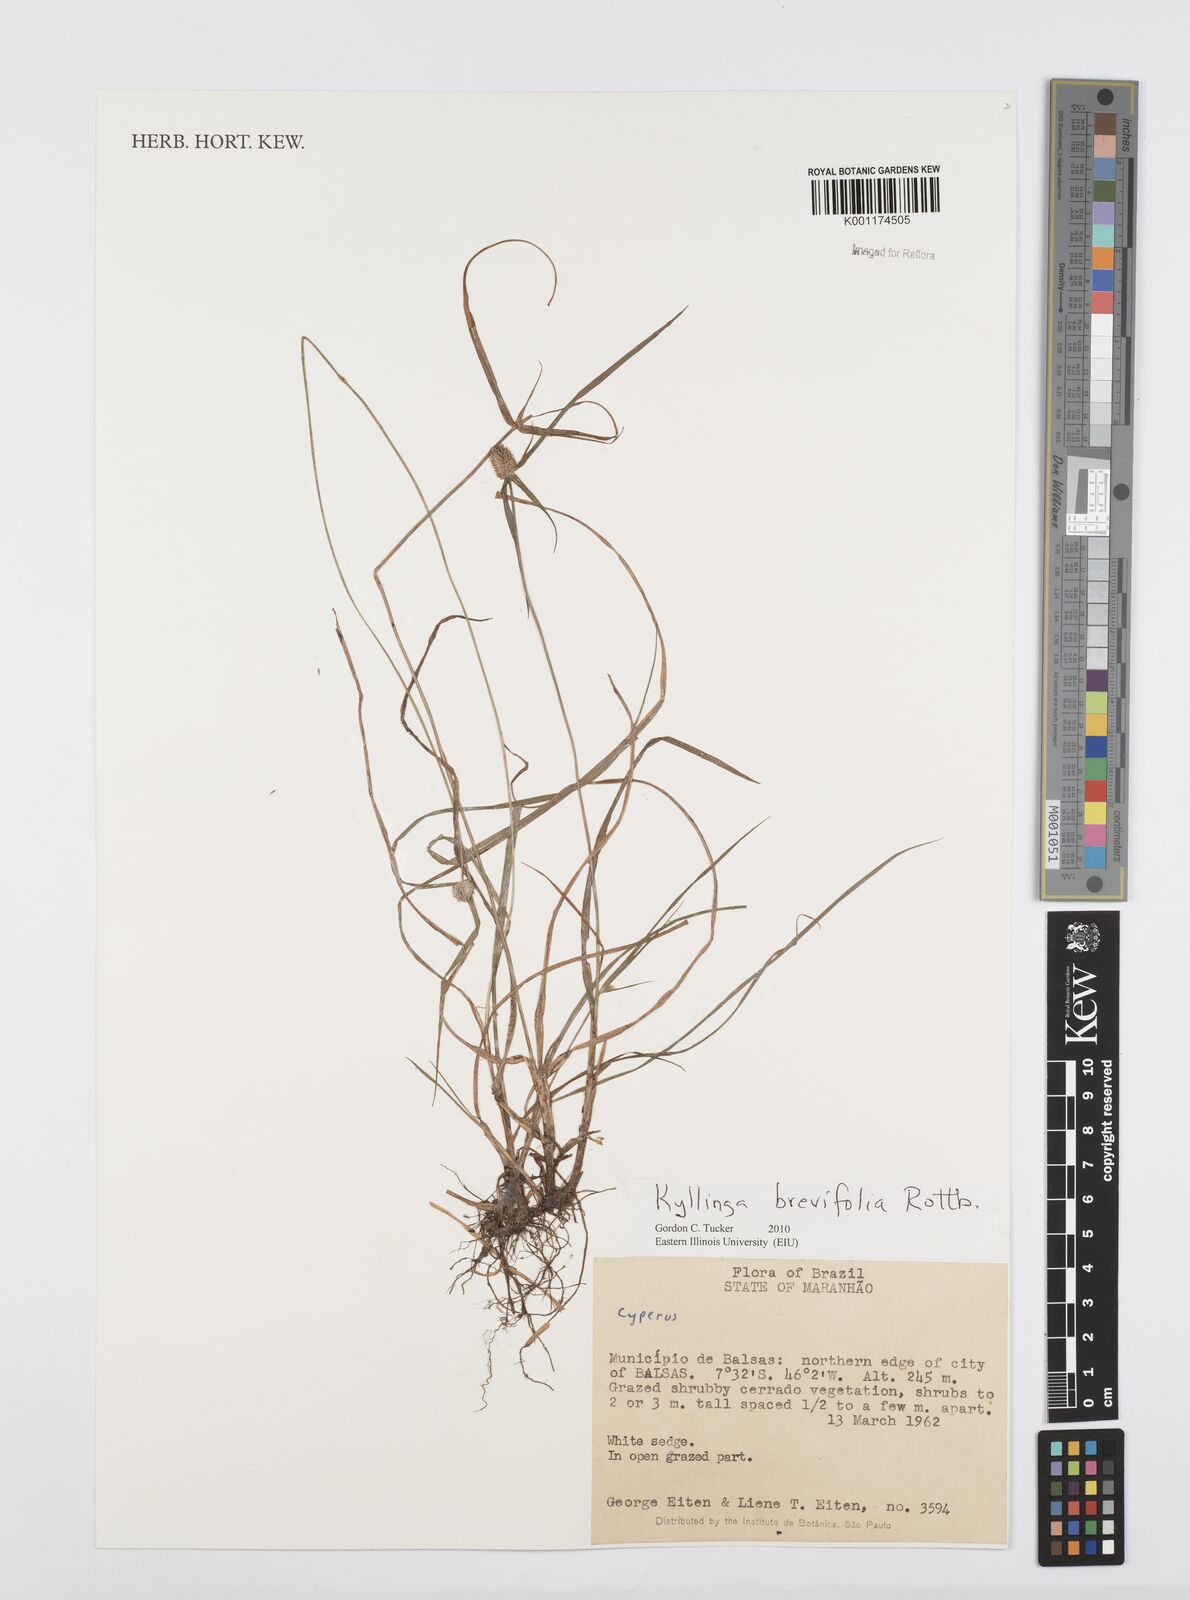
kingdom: Plantae
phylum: Tracheophyta
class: Liliopsida
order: Poales
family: Cyperaceae
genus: Cyperus
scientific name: Cyperus brevifolius
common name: Globe kyllinga
